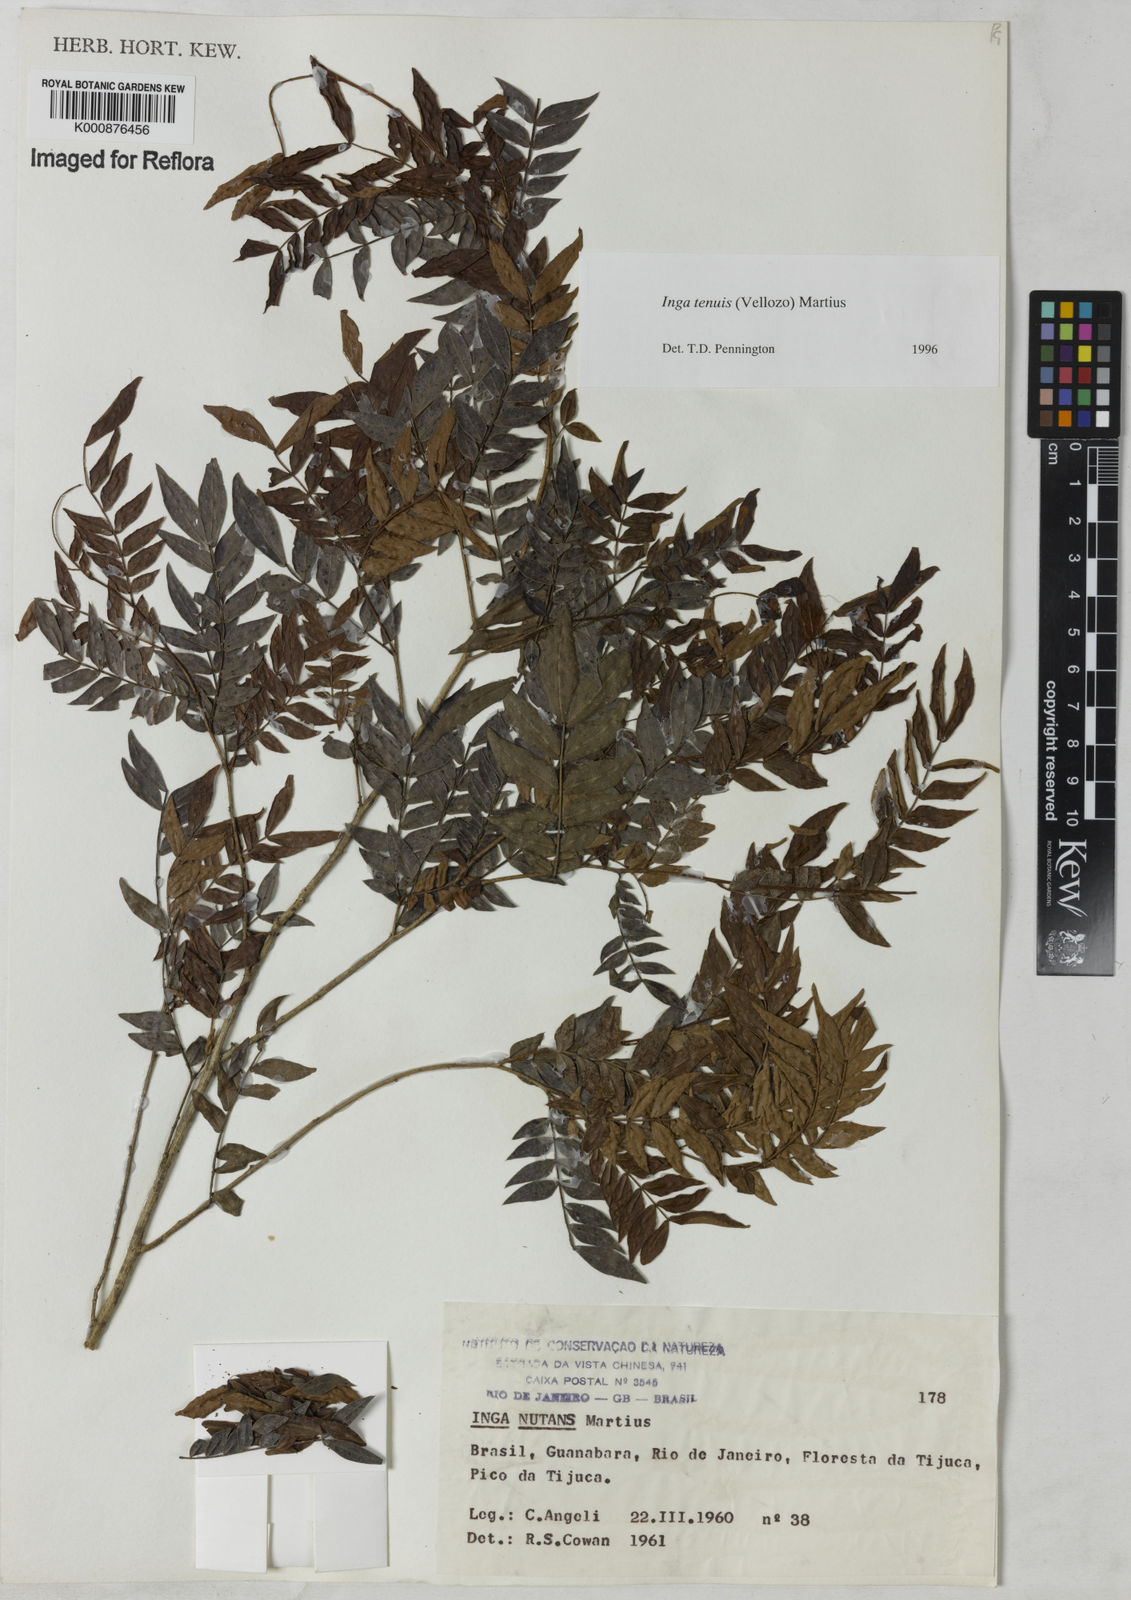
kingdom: Plantae
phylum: Tracheophyta
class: Magnoliopsida
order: Fabales
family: Fabaceae
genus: Inga
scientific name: Inga tenuis
